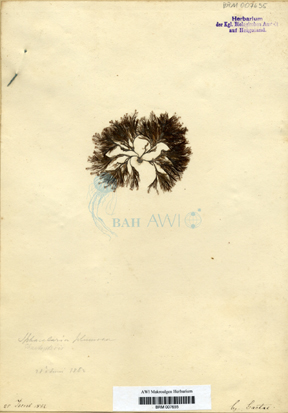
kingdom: Chromista
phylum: Ochrophyta
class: Phaeophyceae
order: Sphacelariales
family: Sphacelariaceae
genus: Chaetopteris
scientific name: Chaetopteris plumosa
